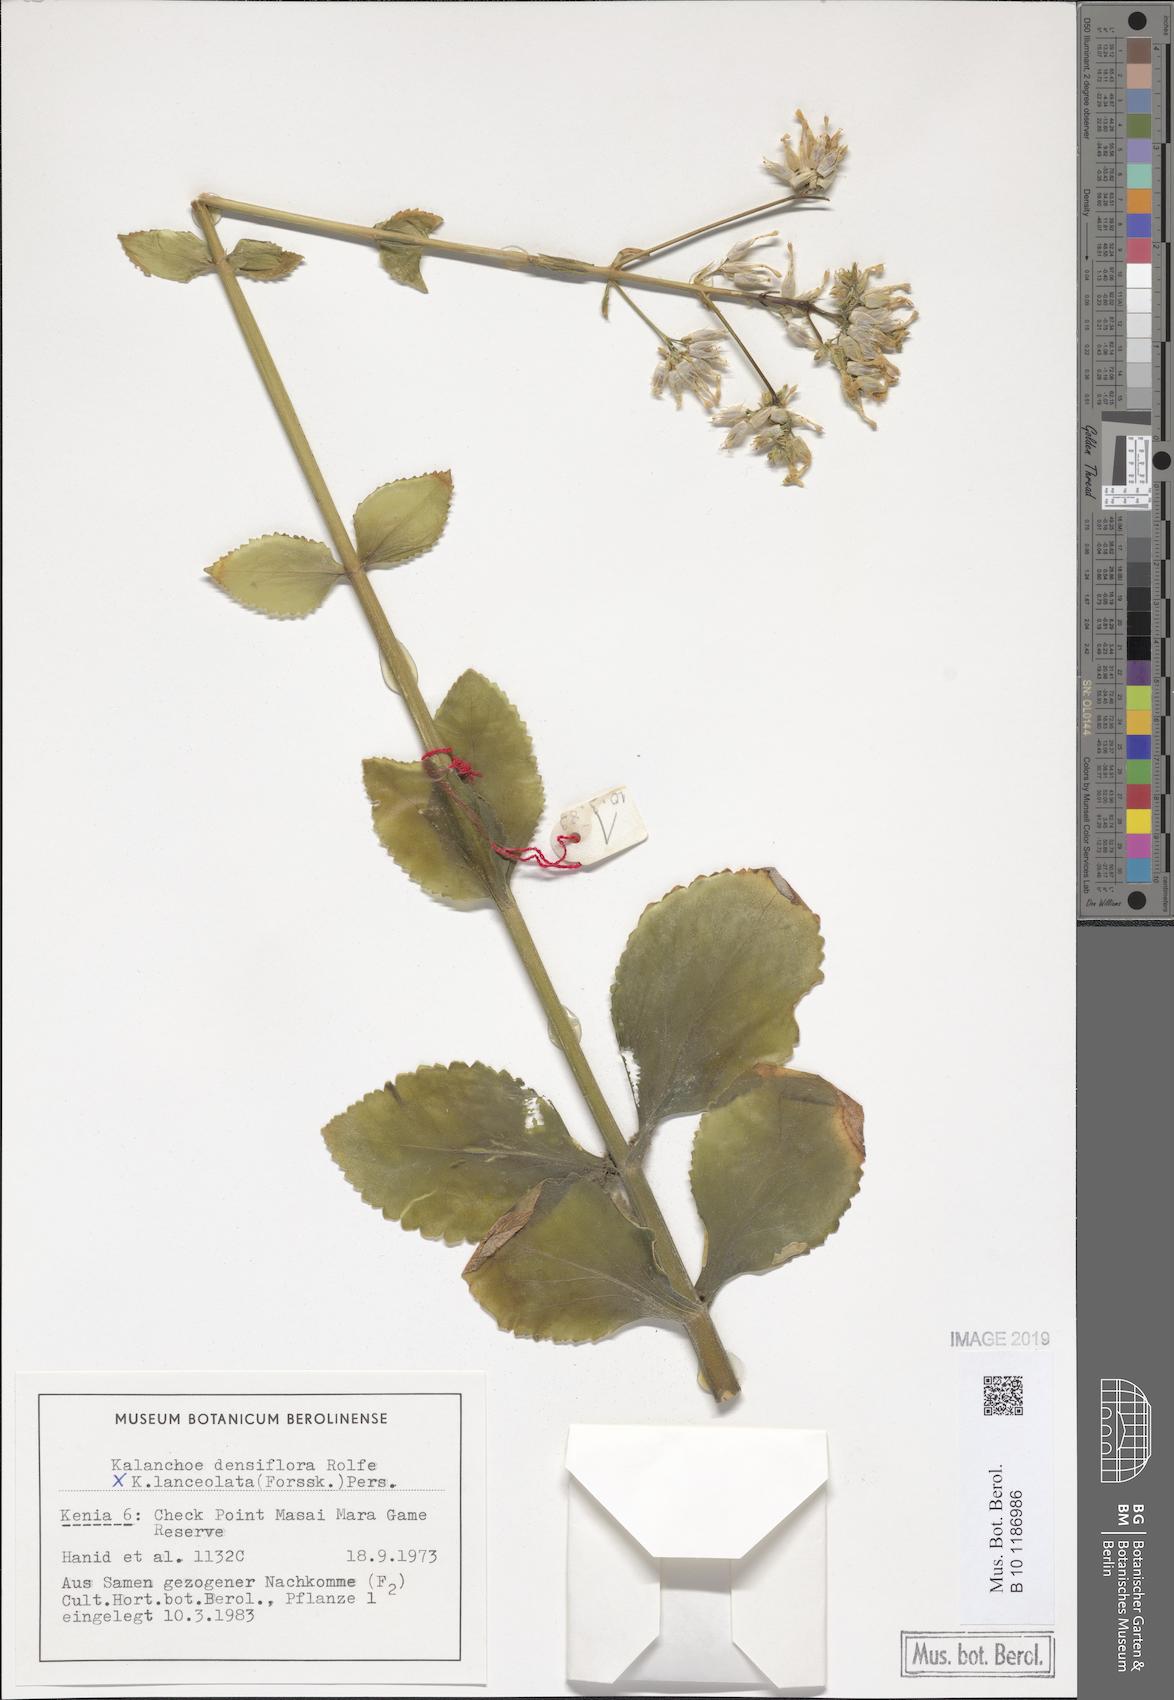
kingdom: Plantae
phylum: Tracheophyta
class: Magnoliopsida
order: Saxifragales
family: Crassulaceae
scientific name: Crassulaceae
